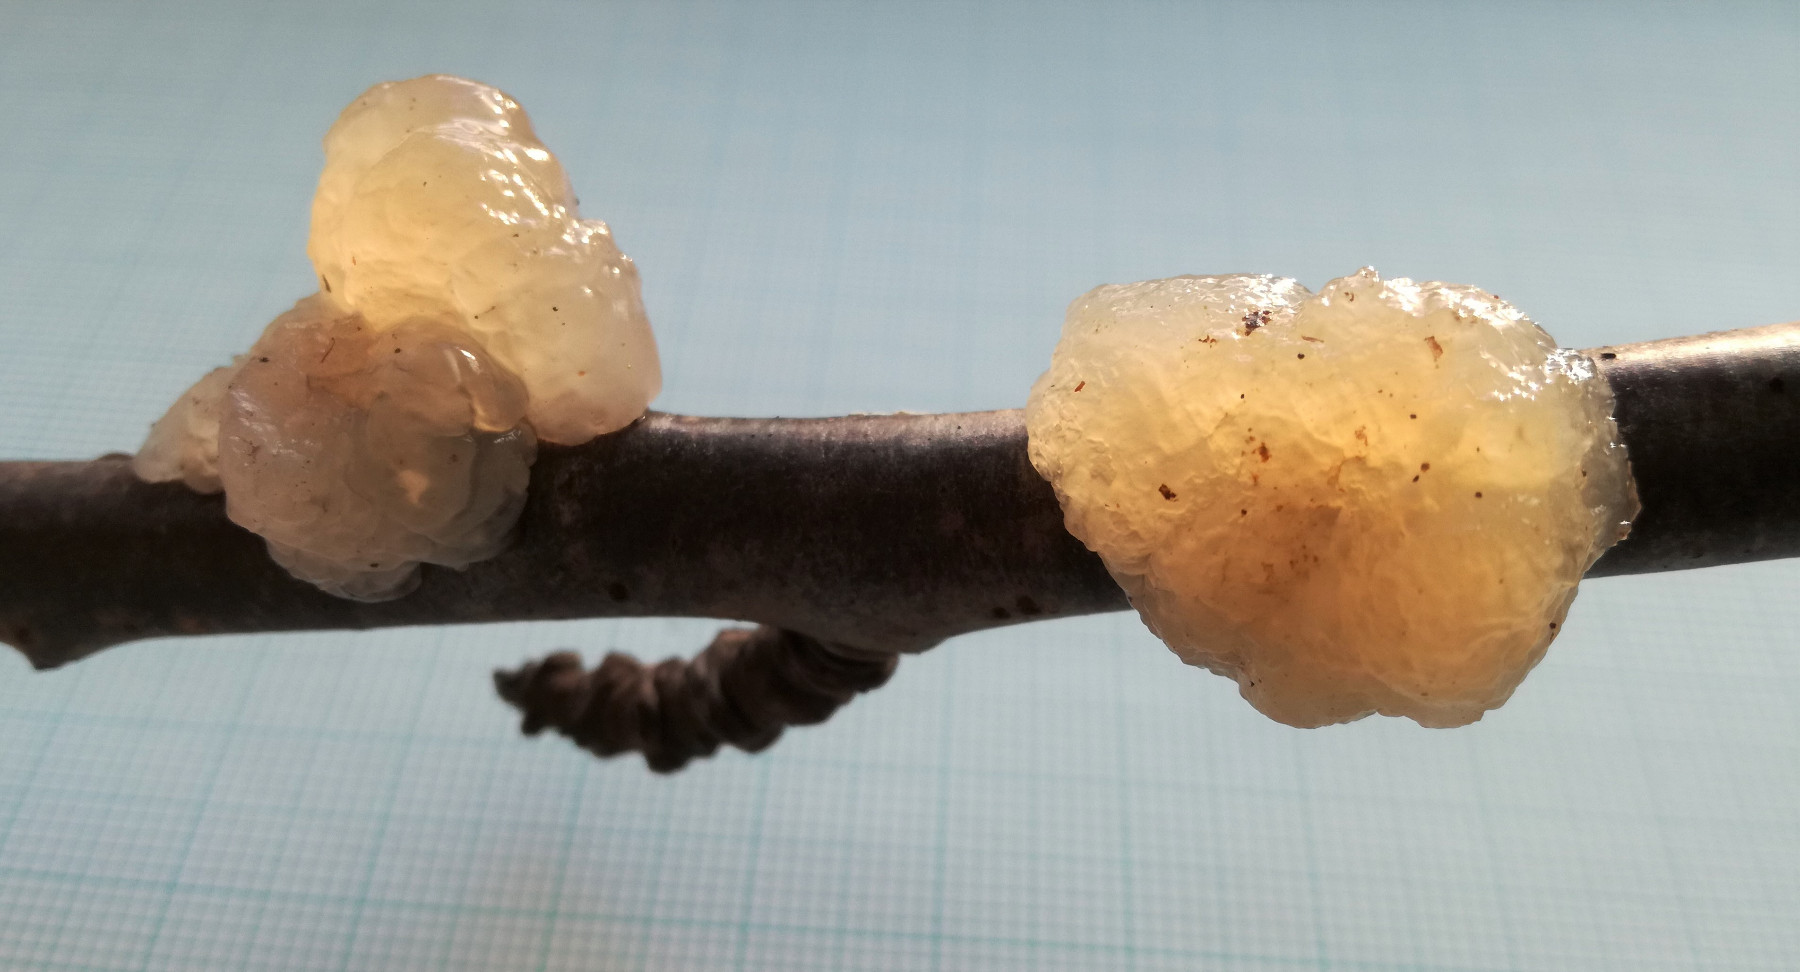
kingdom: Fungi
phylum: Basidiomycota
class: Agaricomycetes
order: Auriculariales
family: Hyaloriaceae
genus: Myxarium
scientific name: Myxarium nucleatum
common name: klar bævretop
